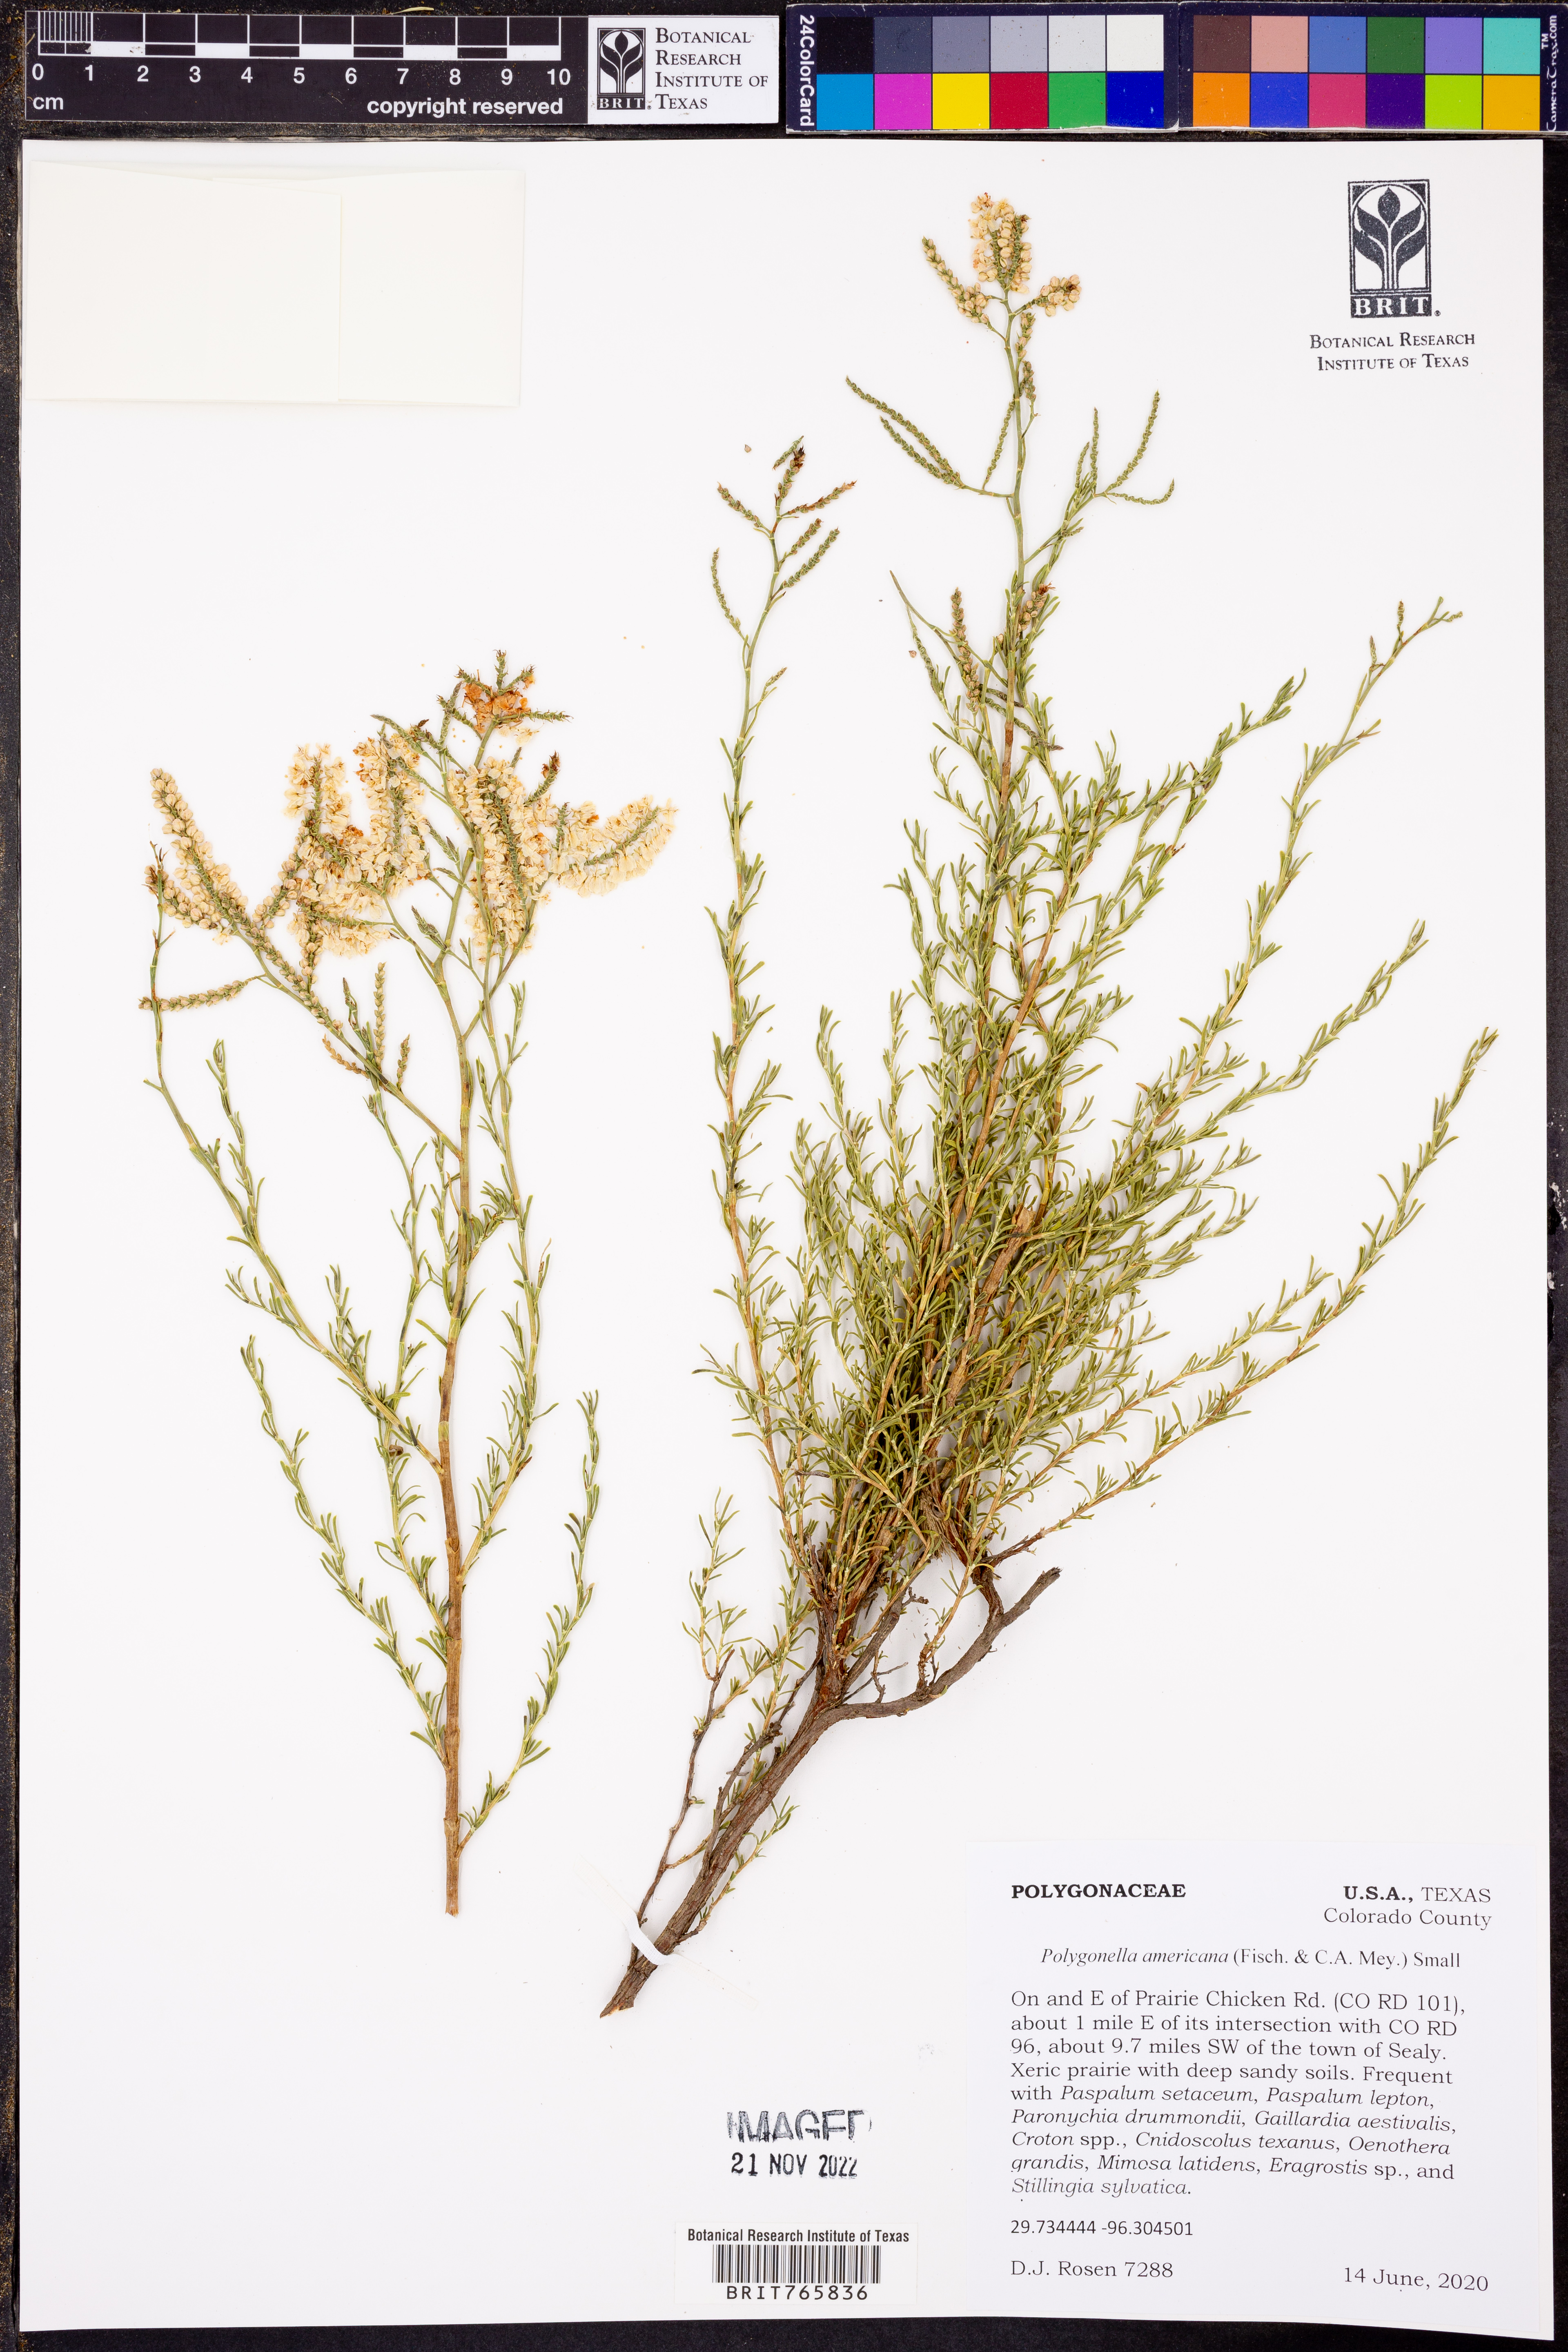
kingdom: Plantae
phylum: Tracheophyta
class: Magnoliopsida
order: Caryophyllales
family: Polygonaceae
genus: Polygonella
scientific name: Polygonella americana
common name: Southern jointweed
